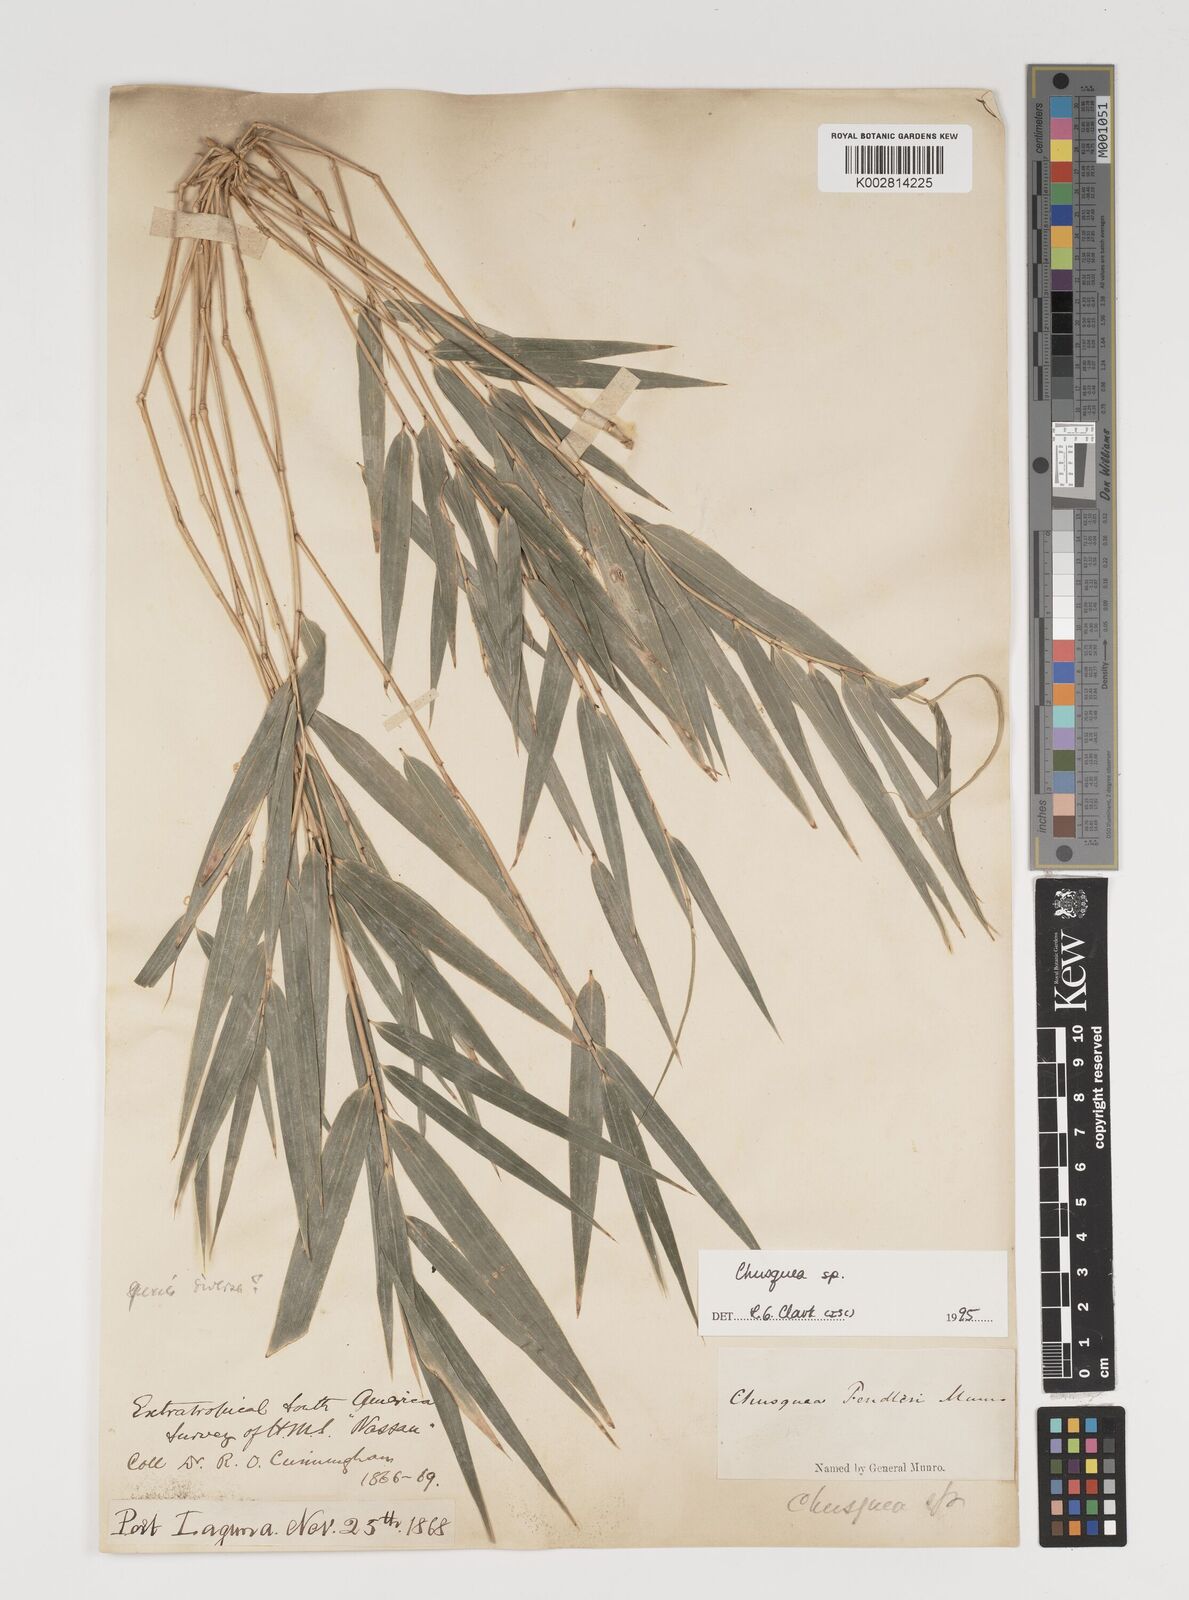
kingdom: Plantae
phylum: Tracheophyta
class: Liliopsida
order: Poales
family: Poaceae
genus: Chusquea
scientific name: Chusquea
